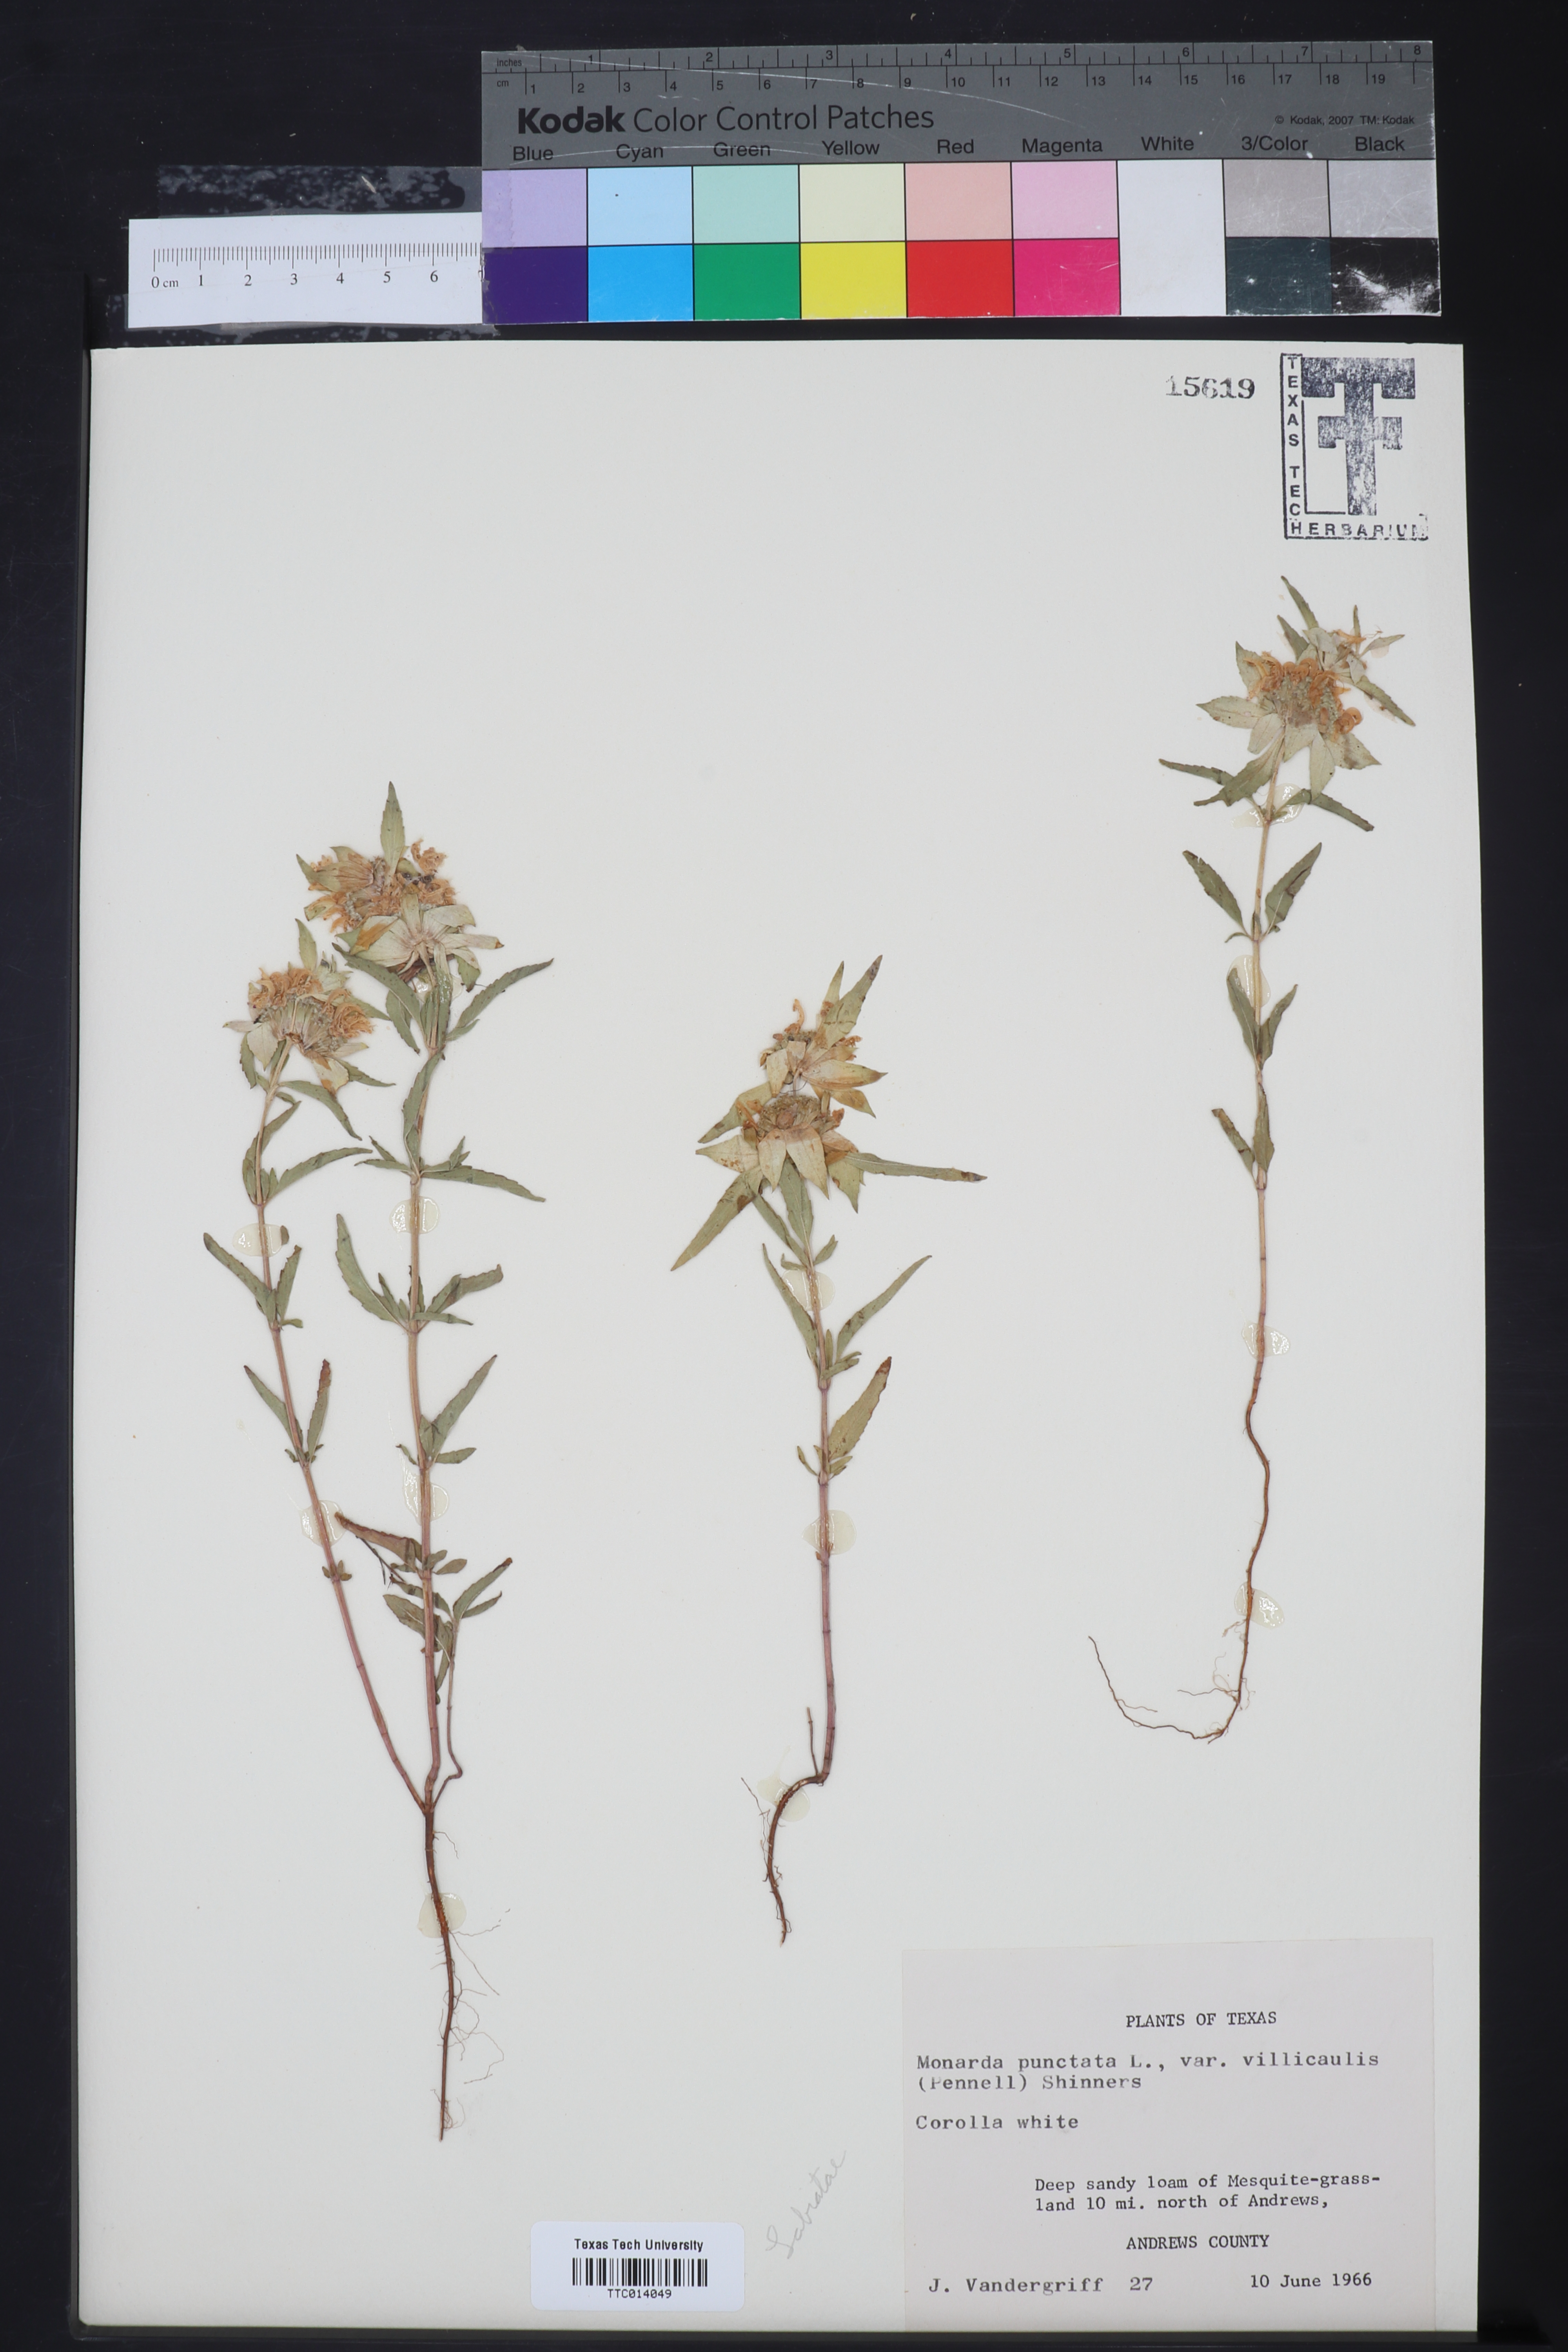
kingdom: Plantae
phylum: Tracheophyta
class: Magnoliopsida
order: Lamiales
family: Lamiaceae
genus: Monarda
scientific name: Monarda punctata
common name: Dotted monarda
